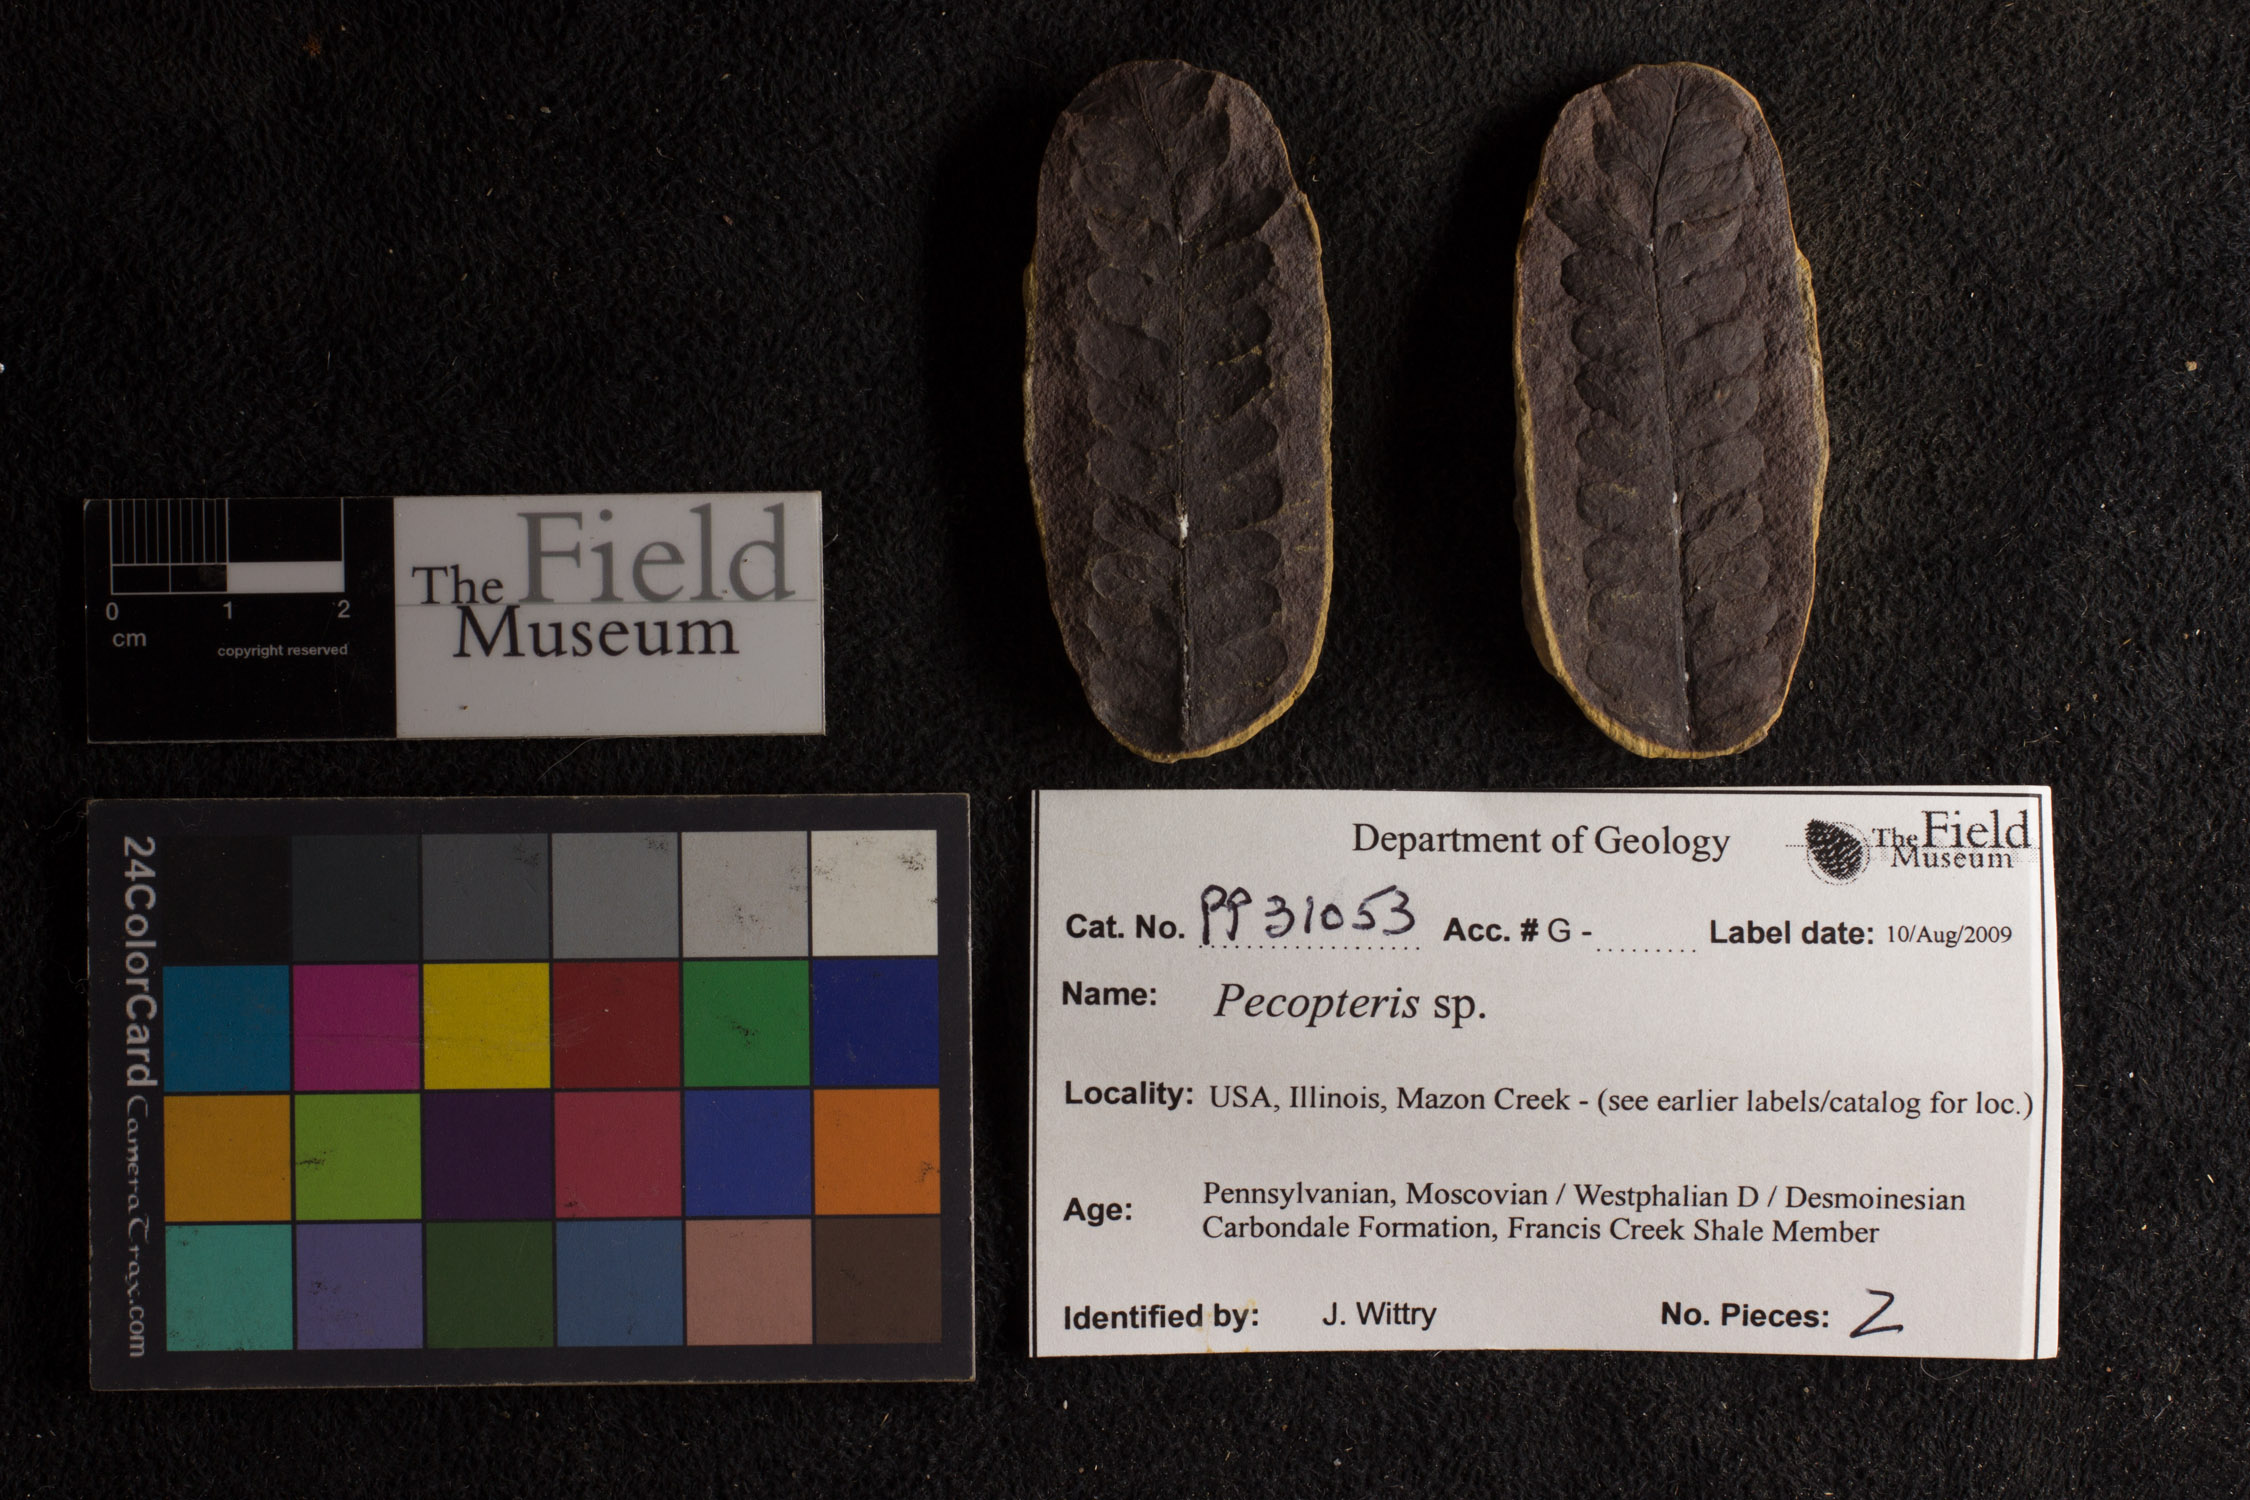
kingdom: Plantae
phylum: Tracheophyta
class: Polypodiopsida
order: Marattiales
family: Asterothecaceae
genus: Pecopteris
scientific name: Pecopteris
